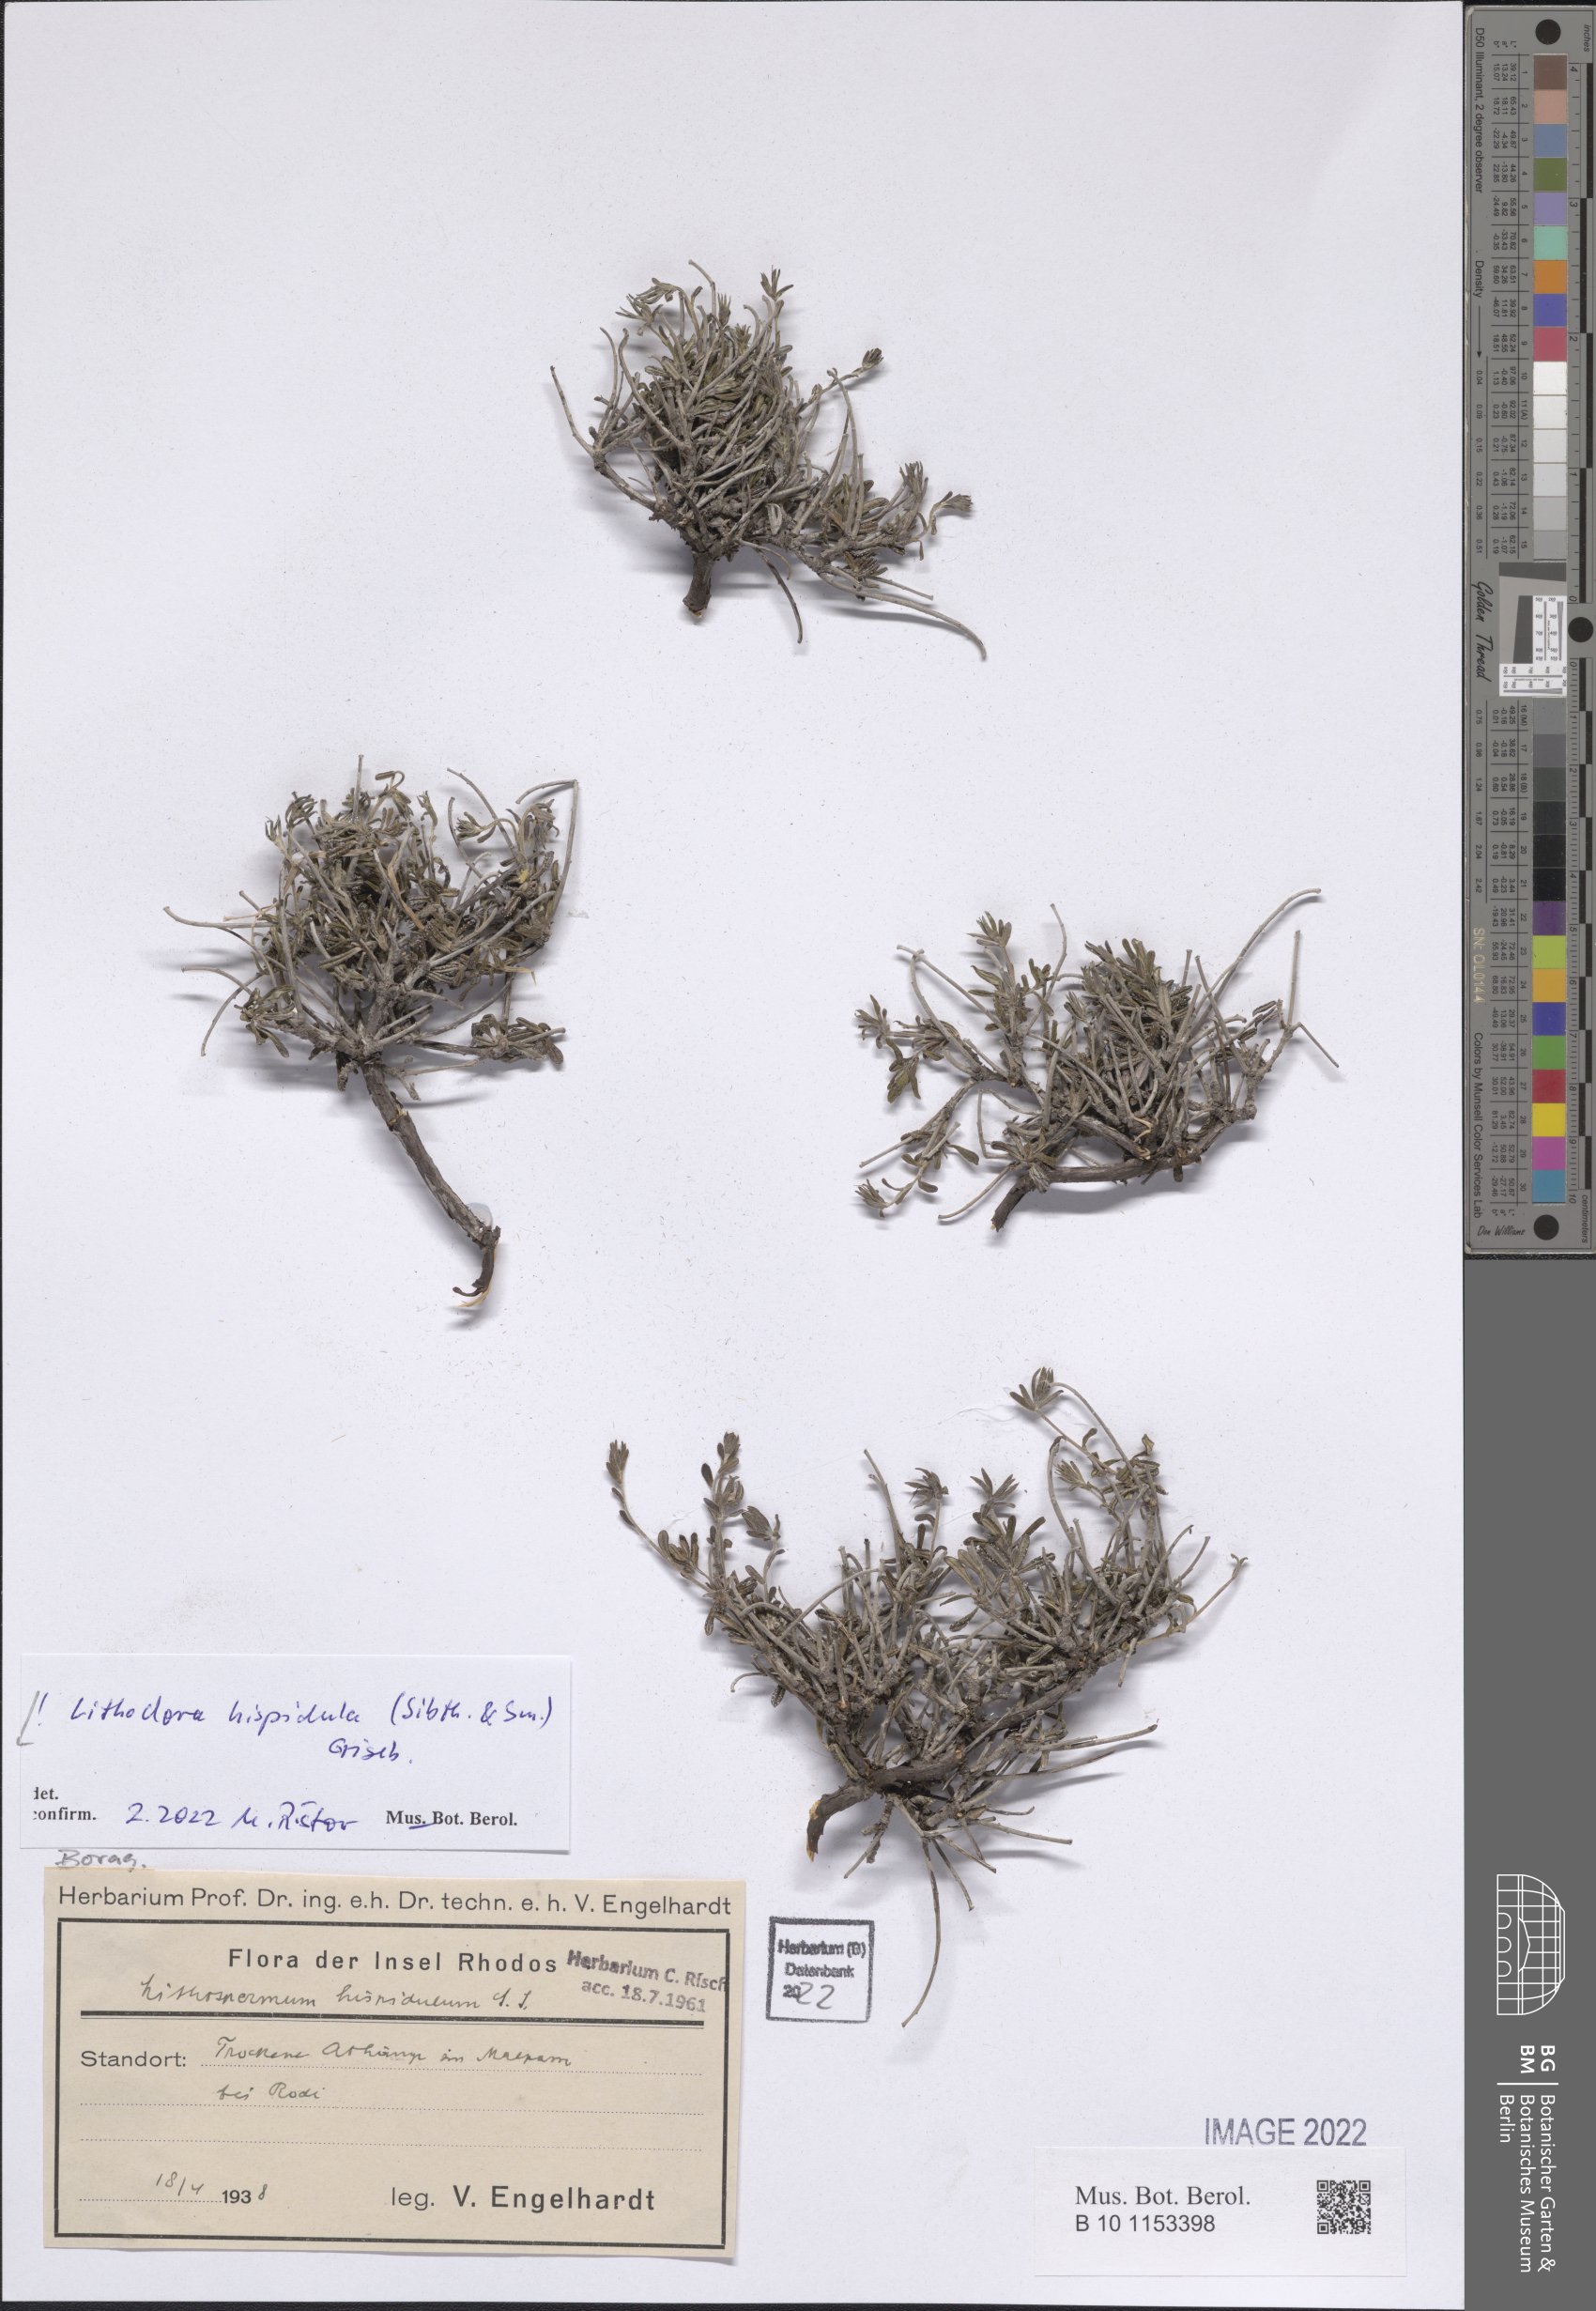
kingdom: Plantae
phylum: Tracheophyta
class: Magnoliopsida
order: Boraginales
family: Boraginaceae
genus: Lithodora
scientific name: Lithodora hispidula
